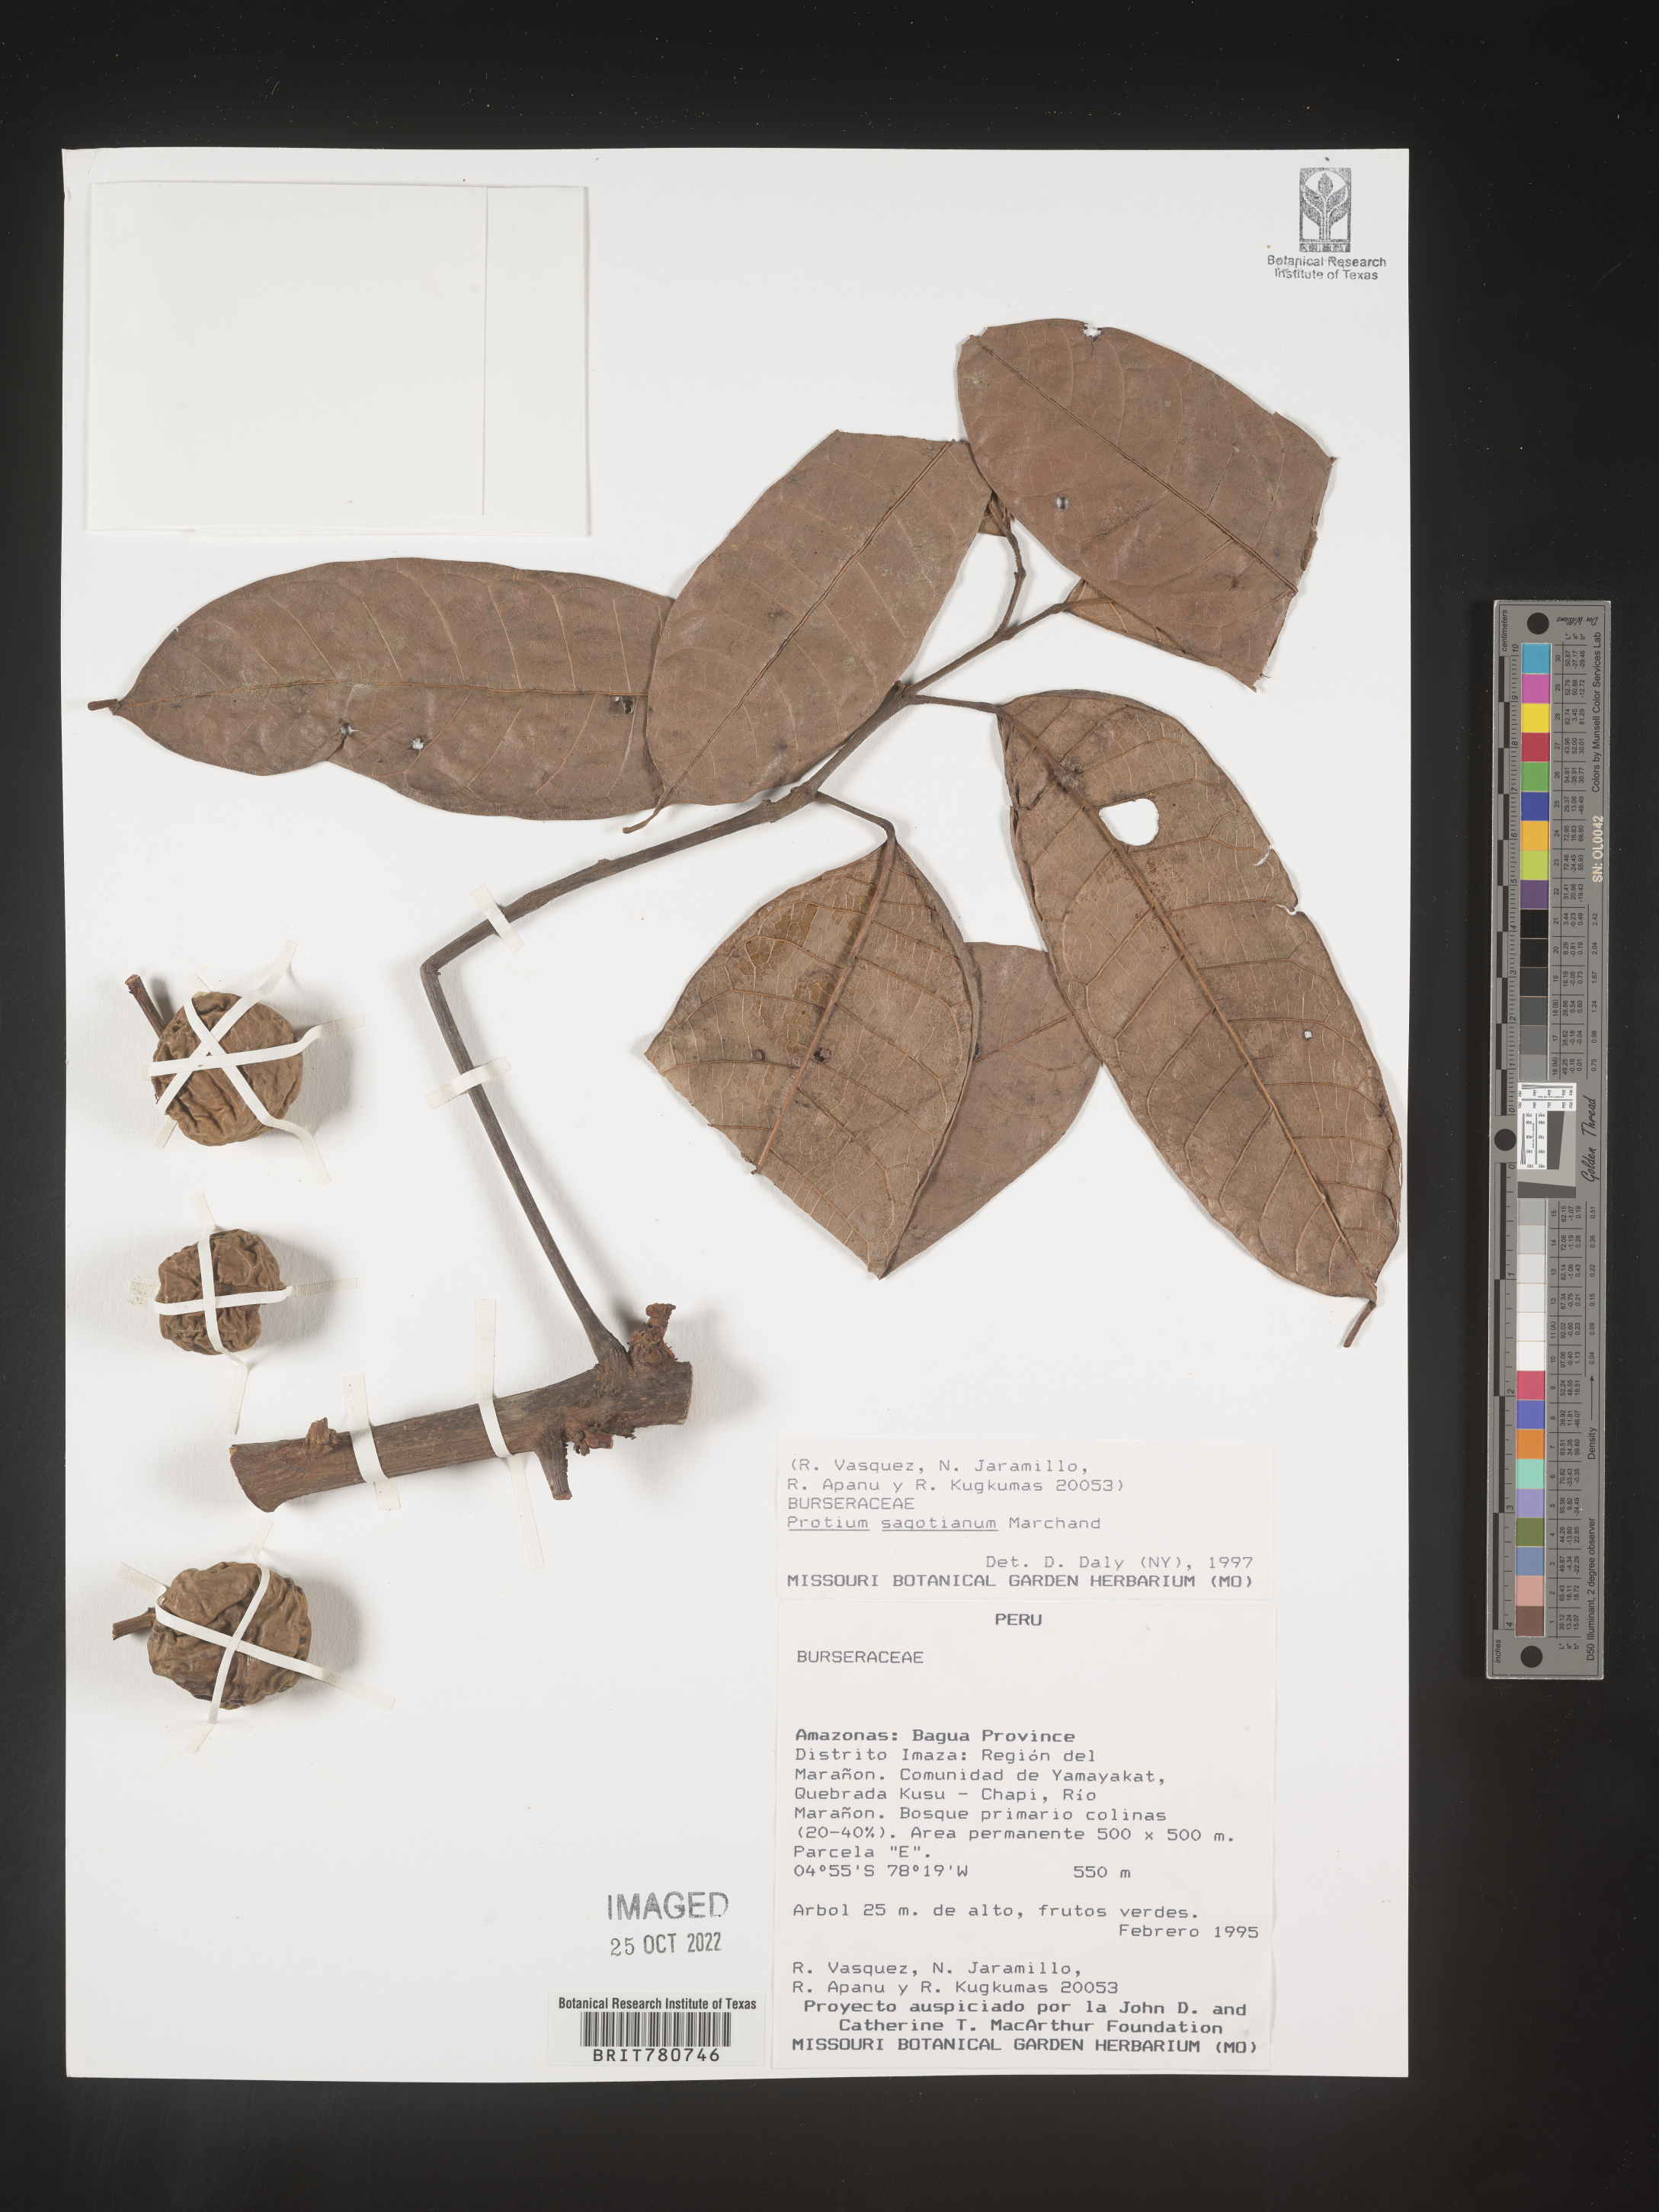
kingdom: Plantae
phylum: Tracheophyta
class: Magnoliopsida
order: Sapindales
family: Burseraceae
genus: Protium
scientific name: Protium
